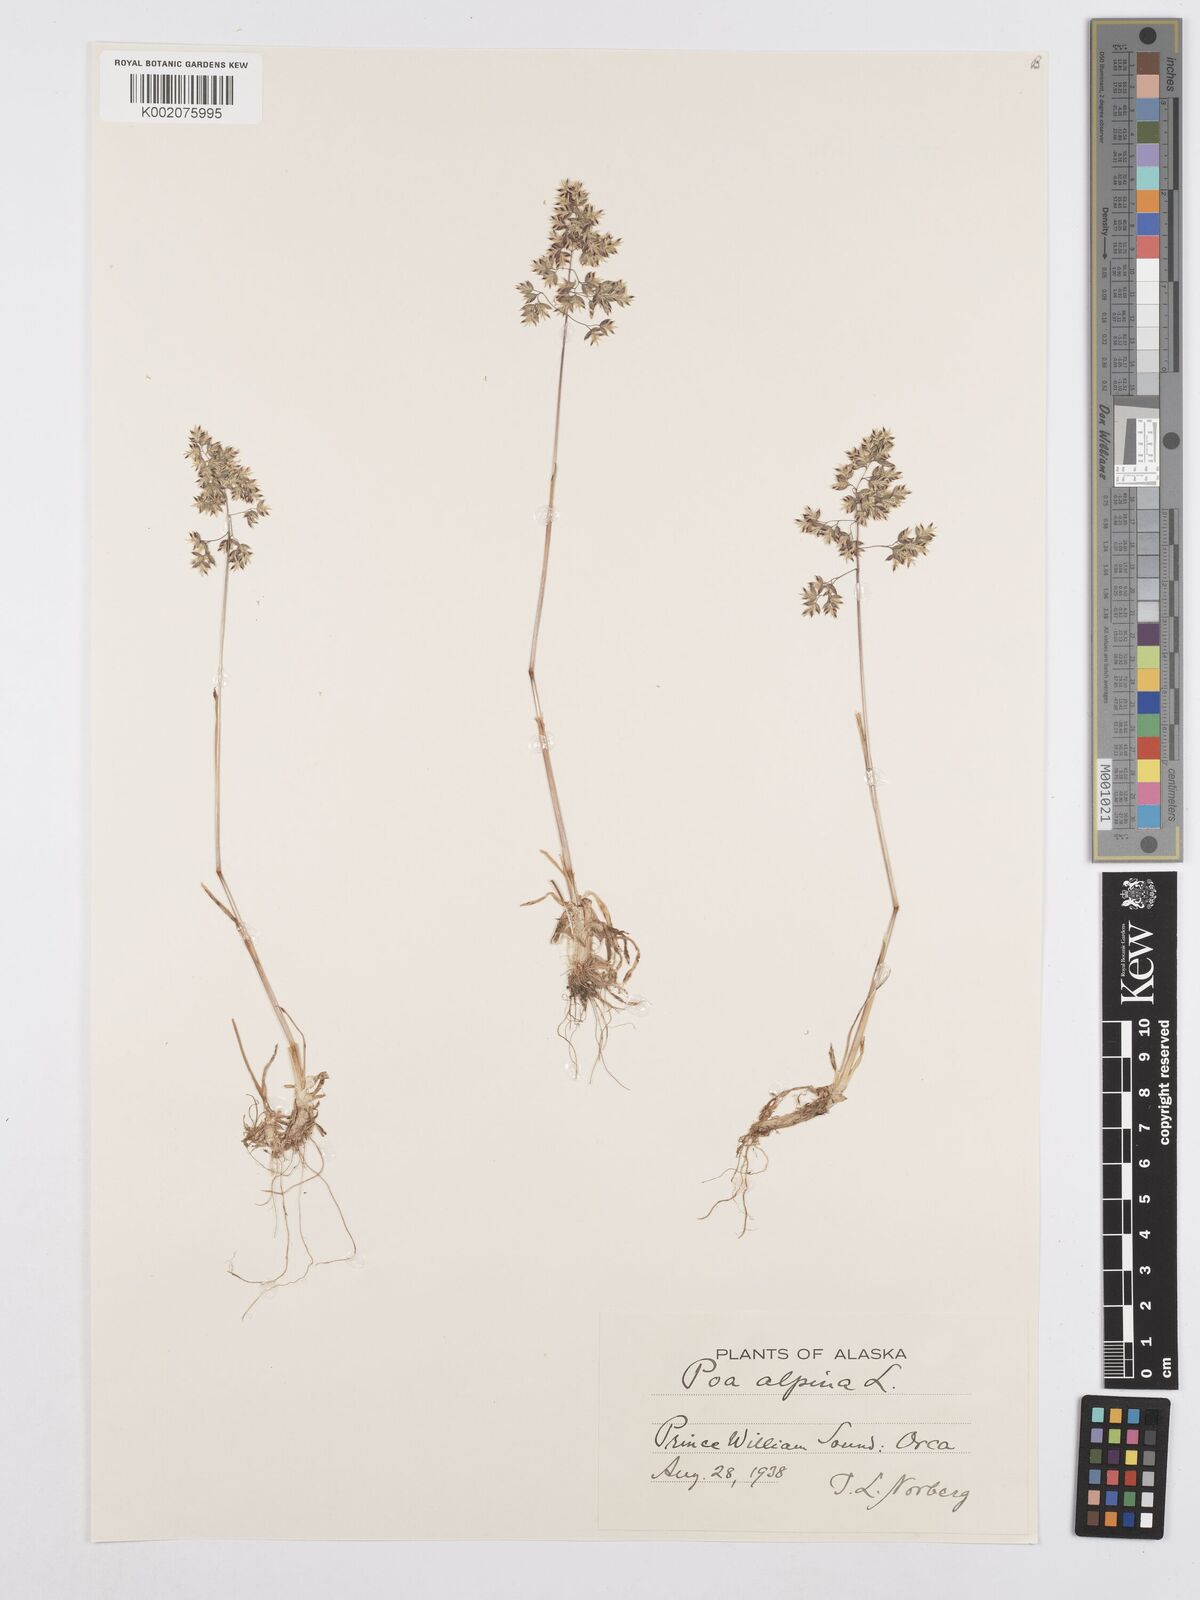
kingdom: Plantae
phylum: Tracheophyta
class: Liliopsida
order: Poales
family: Poaceae
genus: Poa
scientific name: Poa alpina
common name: Alpine bluegrass
